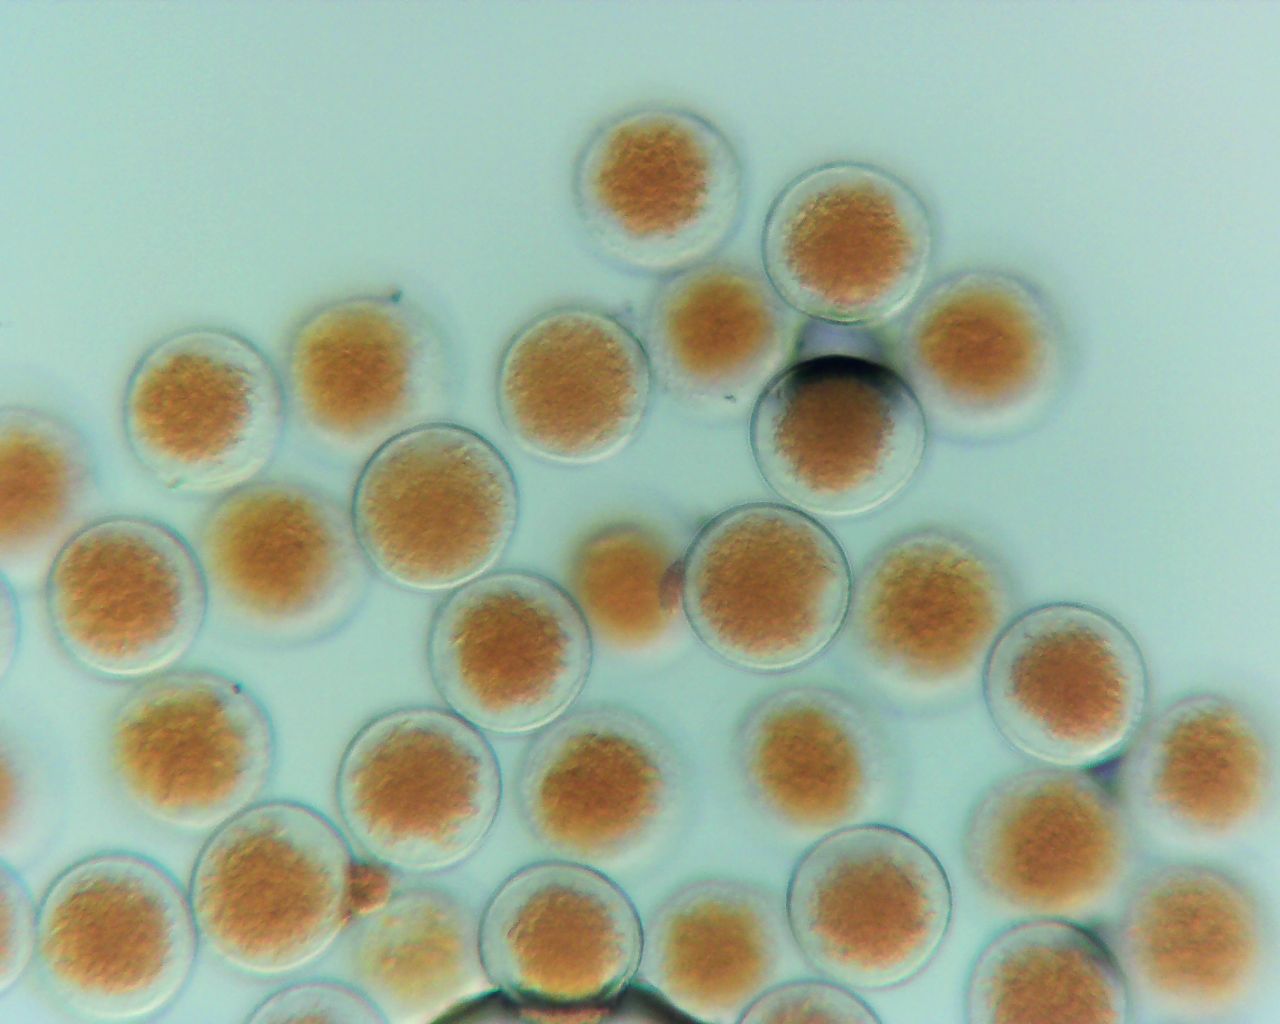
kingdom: Fungi
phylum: Basidiomycota
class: Pucciniomycetes
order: Pucciniales
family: Pucciniaceae
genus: Puccinia
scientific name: Puccinia porri
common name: Allium rust
